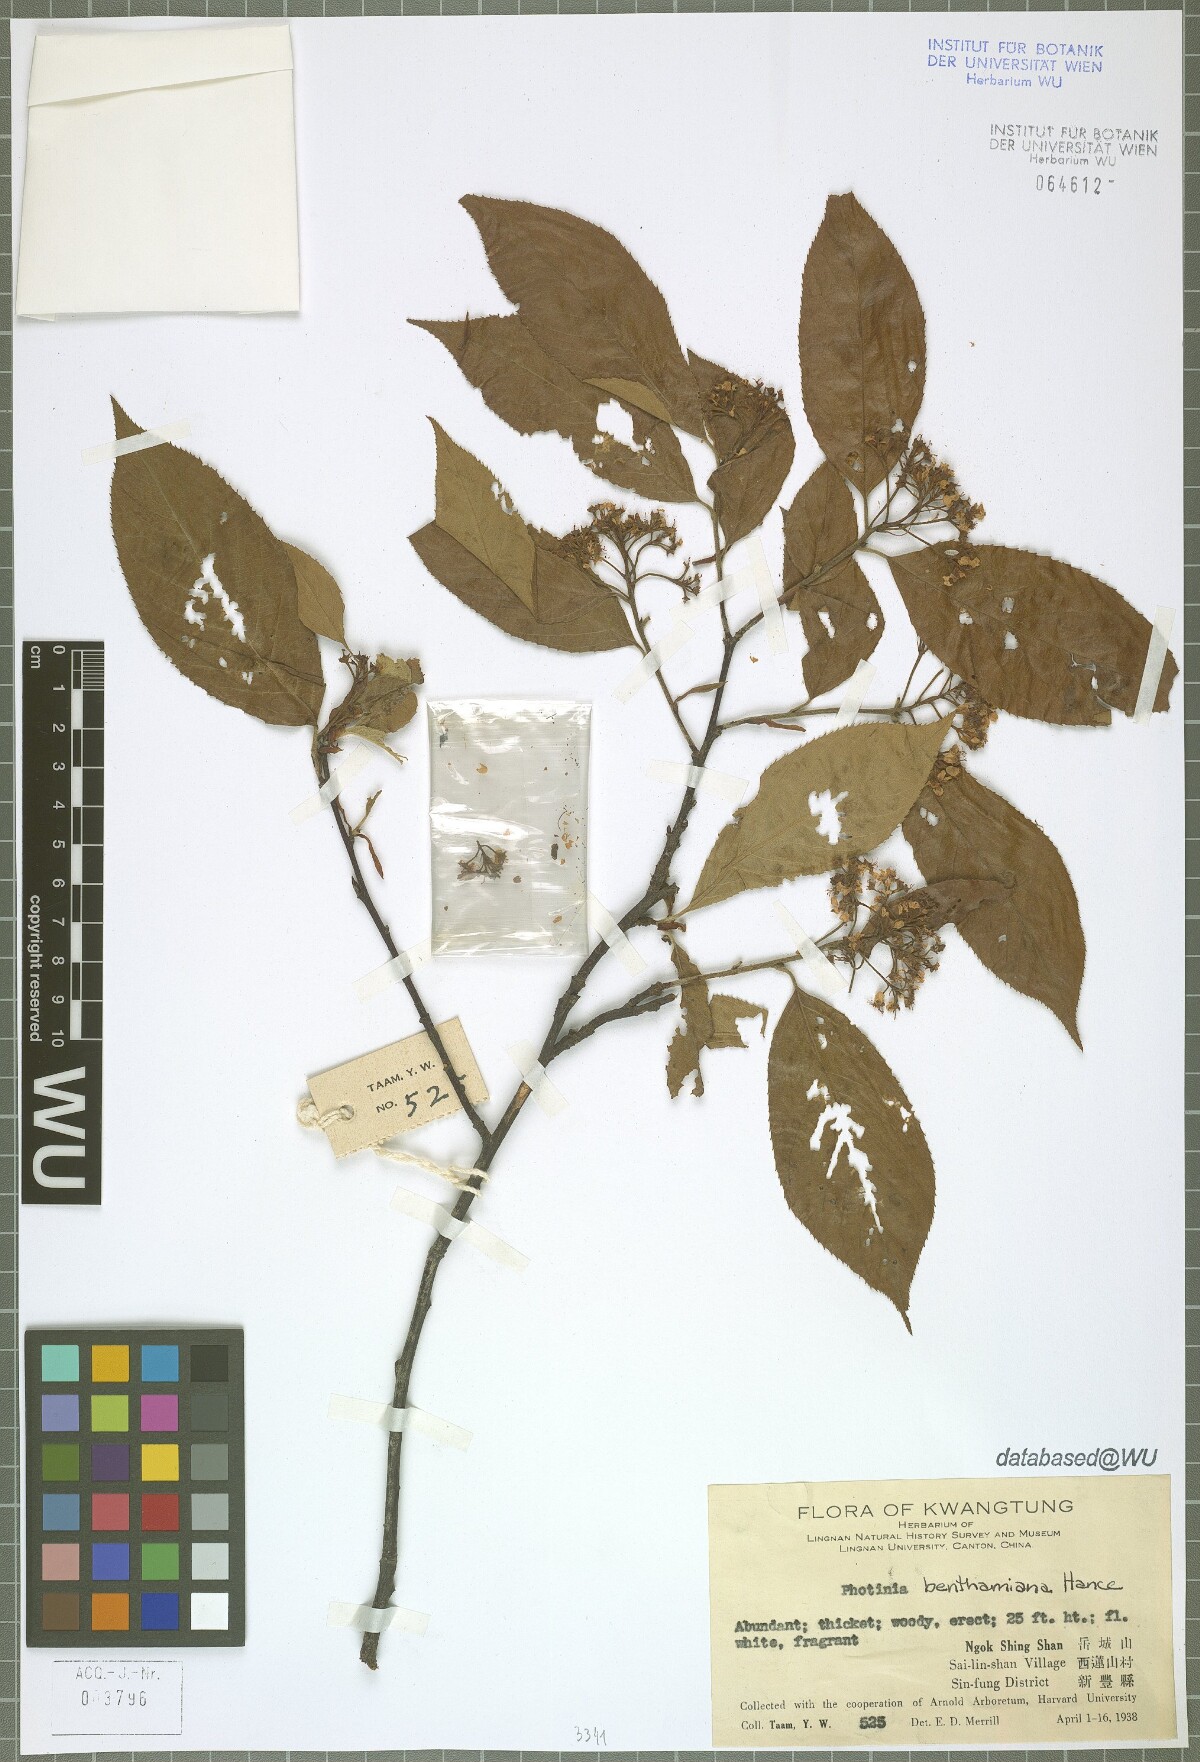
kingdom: Plantae
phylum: Tracheophyta
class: Magnoliopsida
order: Rosales
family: Rosaceae
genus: Pourthiaea
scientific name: Pourthiaea benthamiana
